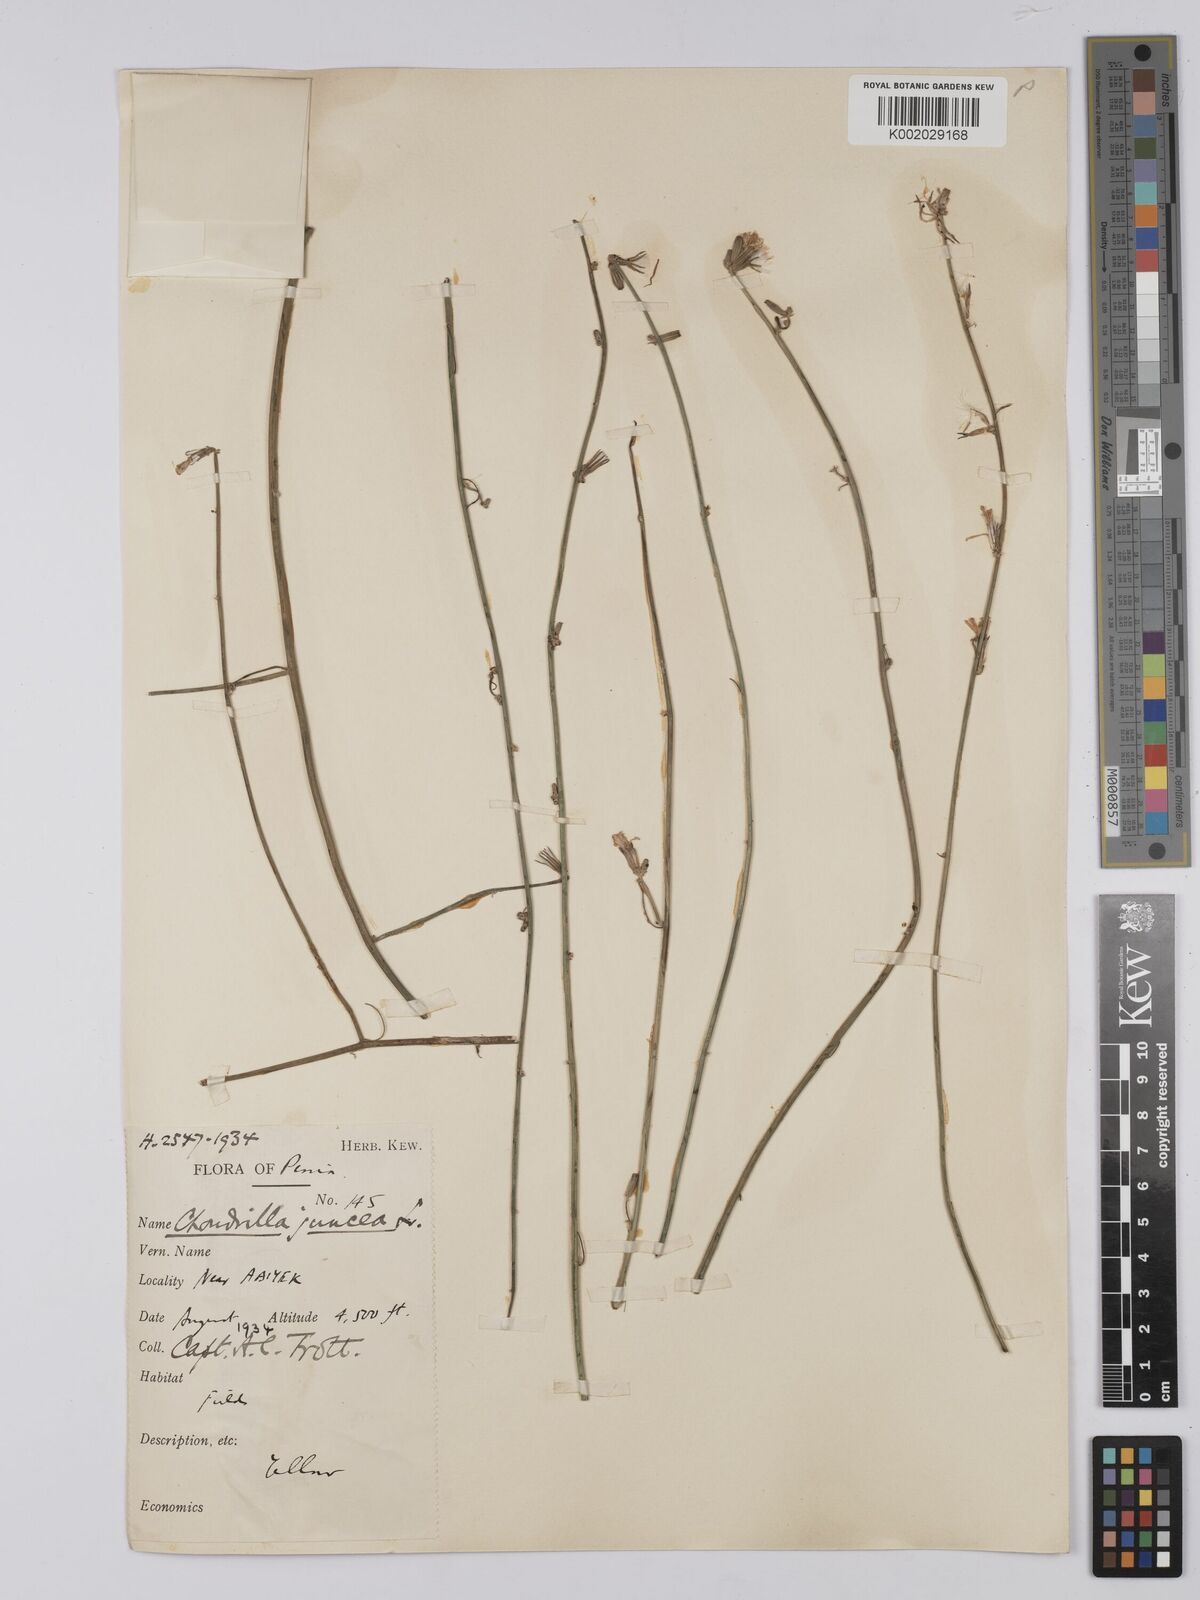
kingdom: Plantae
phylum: Tracheophyta
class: Magnoliopsida
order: Asterales
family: Asteraceae
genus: Chondrilla
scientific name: Chondrilla juncea
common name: Skeleton weed
